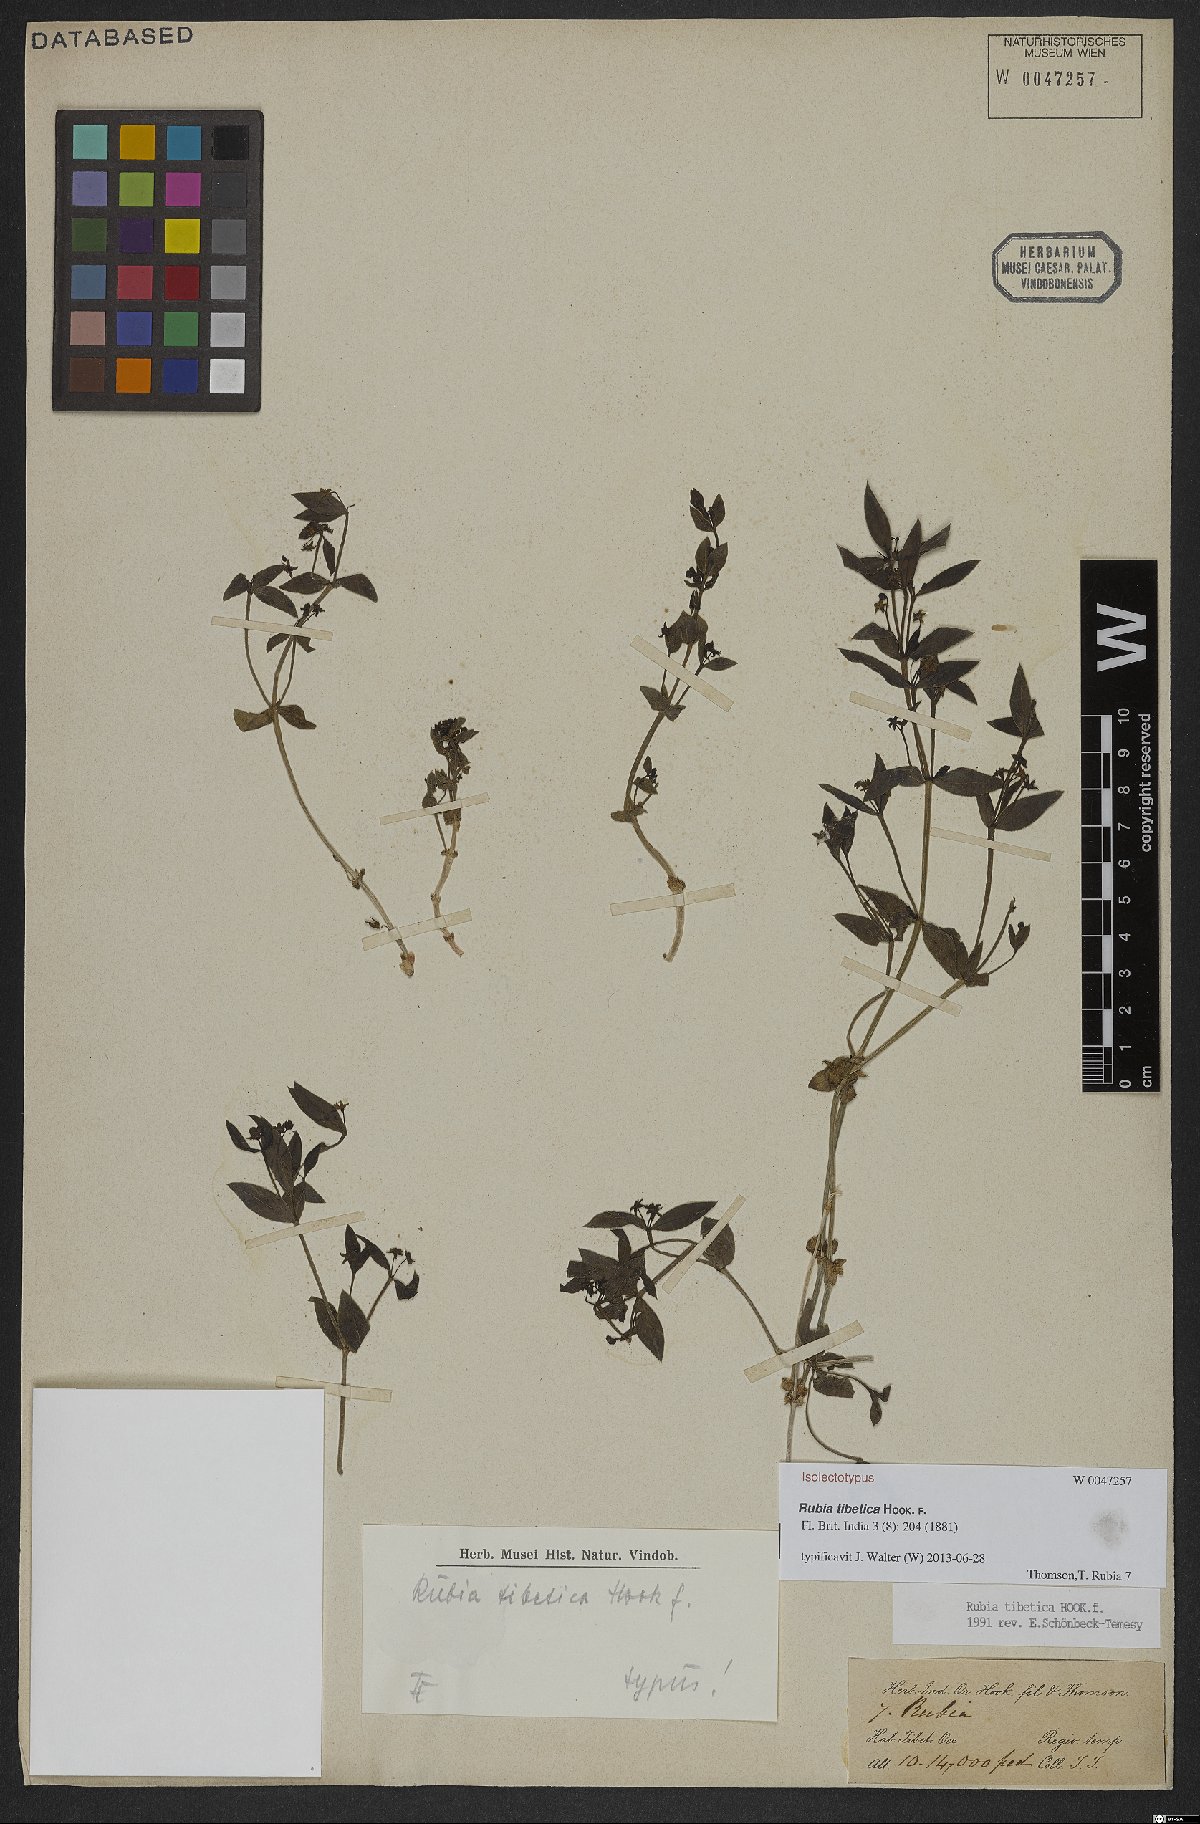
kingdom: Plantae
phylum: Tracheophyta
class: Magnoliopsida
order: Gentianales
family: Rubiaceae
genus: Rubia
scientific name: Rubia tibetica
